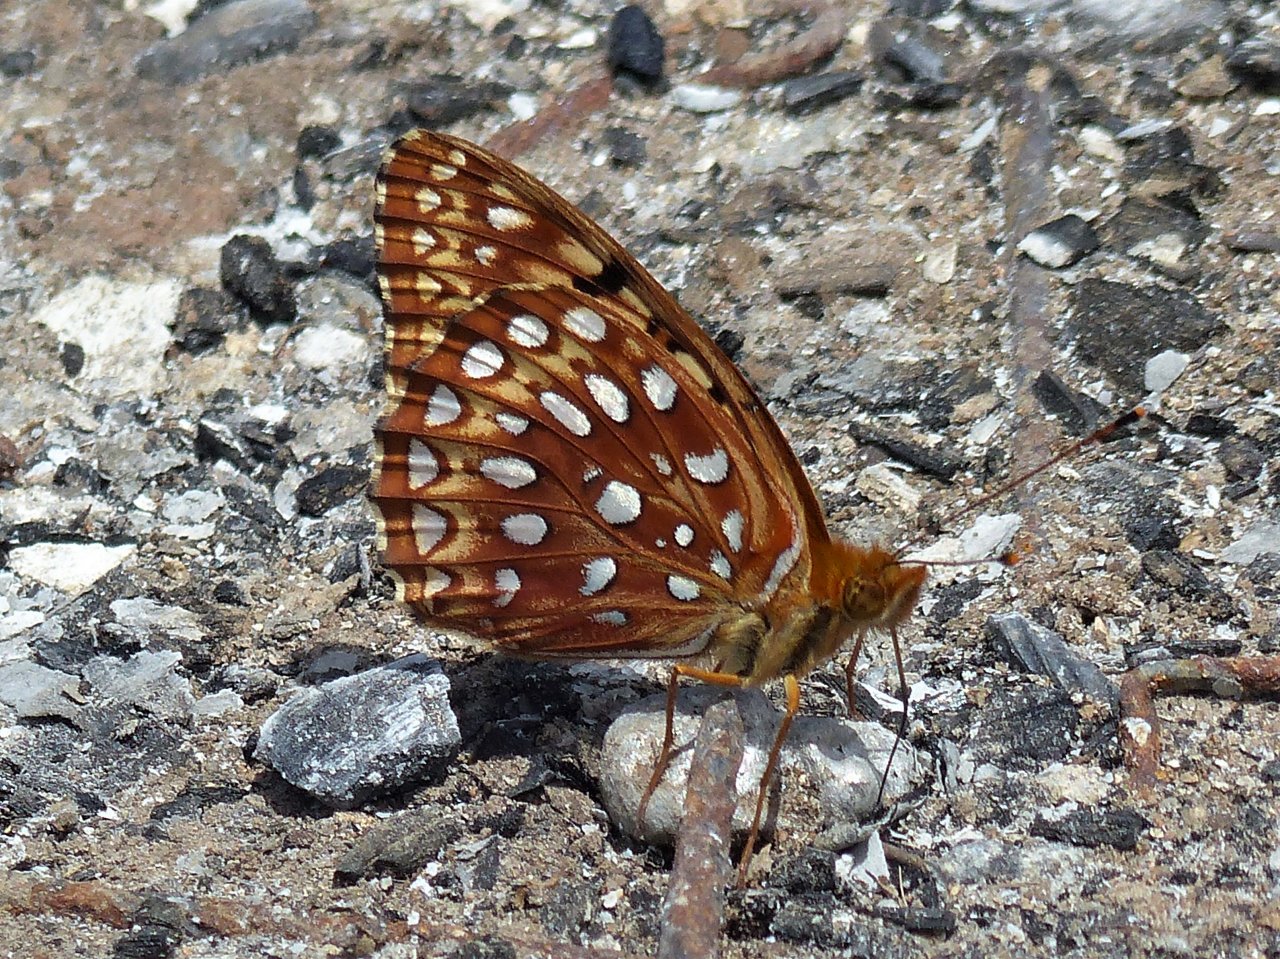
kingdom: Animalia
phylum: Arthropoda
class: Insecta
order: Lepidoptera
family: Nymphalidae
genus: Speyeria
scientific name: Speyeria aphrodite
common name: Aphrodite Fritillary
